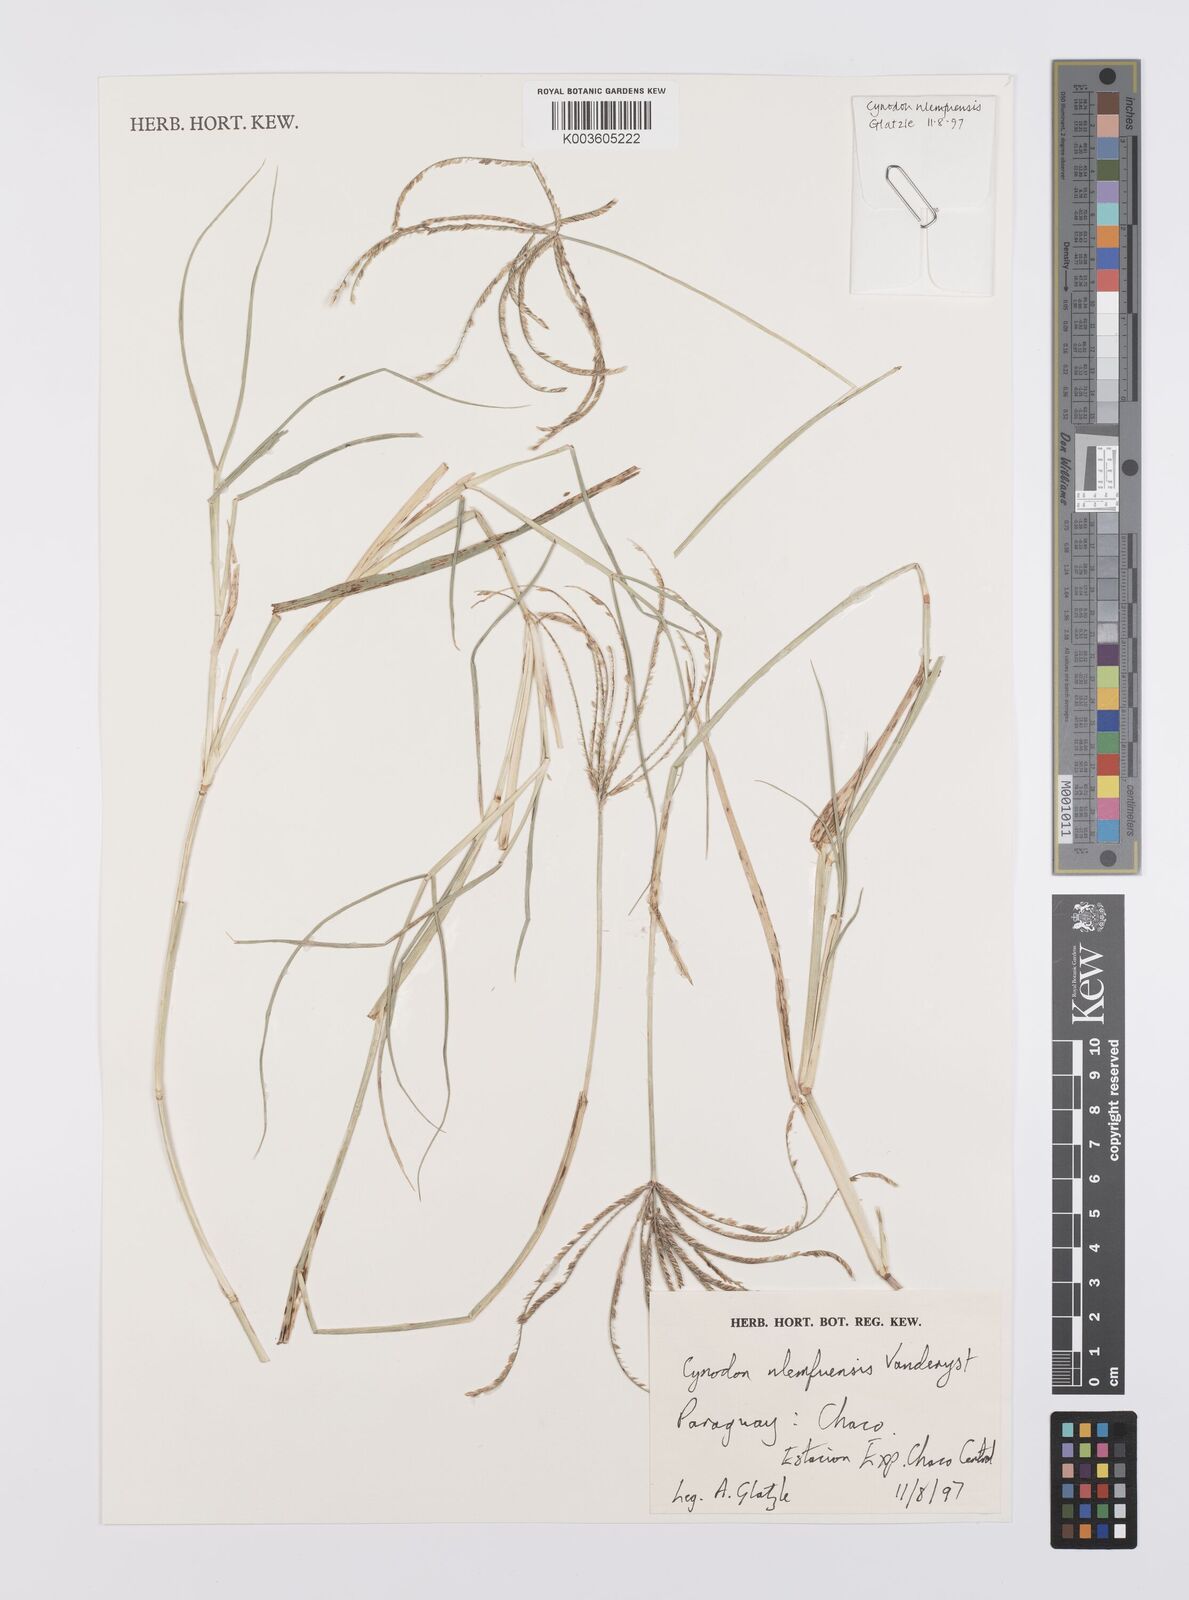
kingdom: Plantae
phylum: Tracheophyta
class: Liliopsida
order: Poales
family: Poaceae
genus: Cynodon
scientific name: Cynodon nlemfuensis
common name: African bermudagrass
